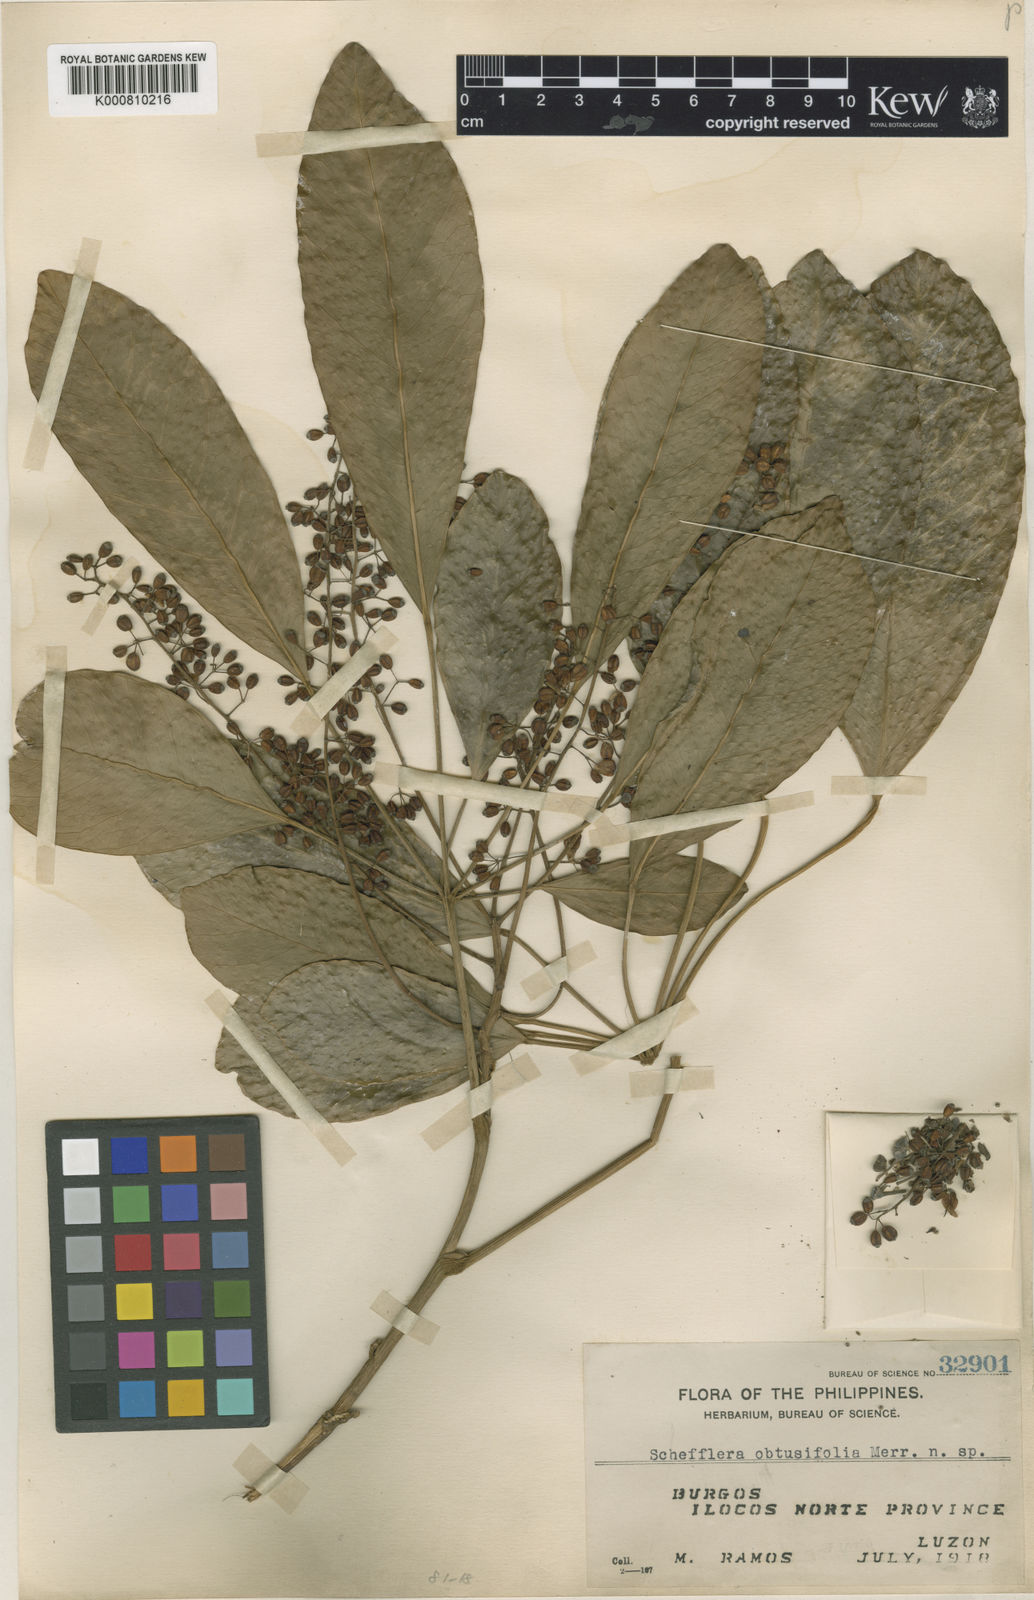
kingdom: Plantae
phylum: Tracheophyta
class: Magnoliopsida
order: Apiales
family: Araliaceae
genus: Heptapleurum
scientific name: Heptapleurum obtusifolium
